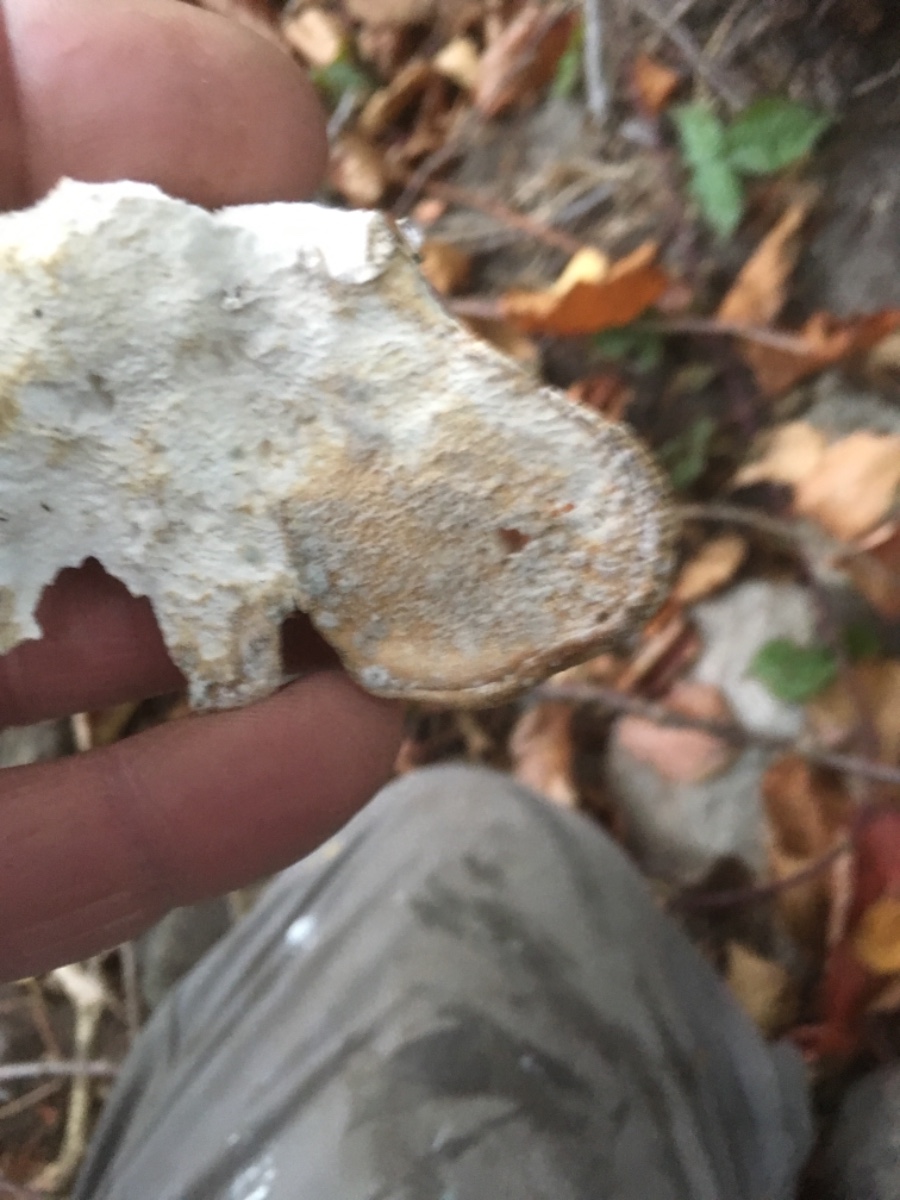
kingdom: Fungi
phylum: Basidiomycota
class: Agaricomycetes
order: Polyporales
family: Laetiporaceae
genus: Laetiporus
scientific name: Laetiporus sulphureus
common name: svovlporesvamp
